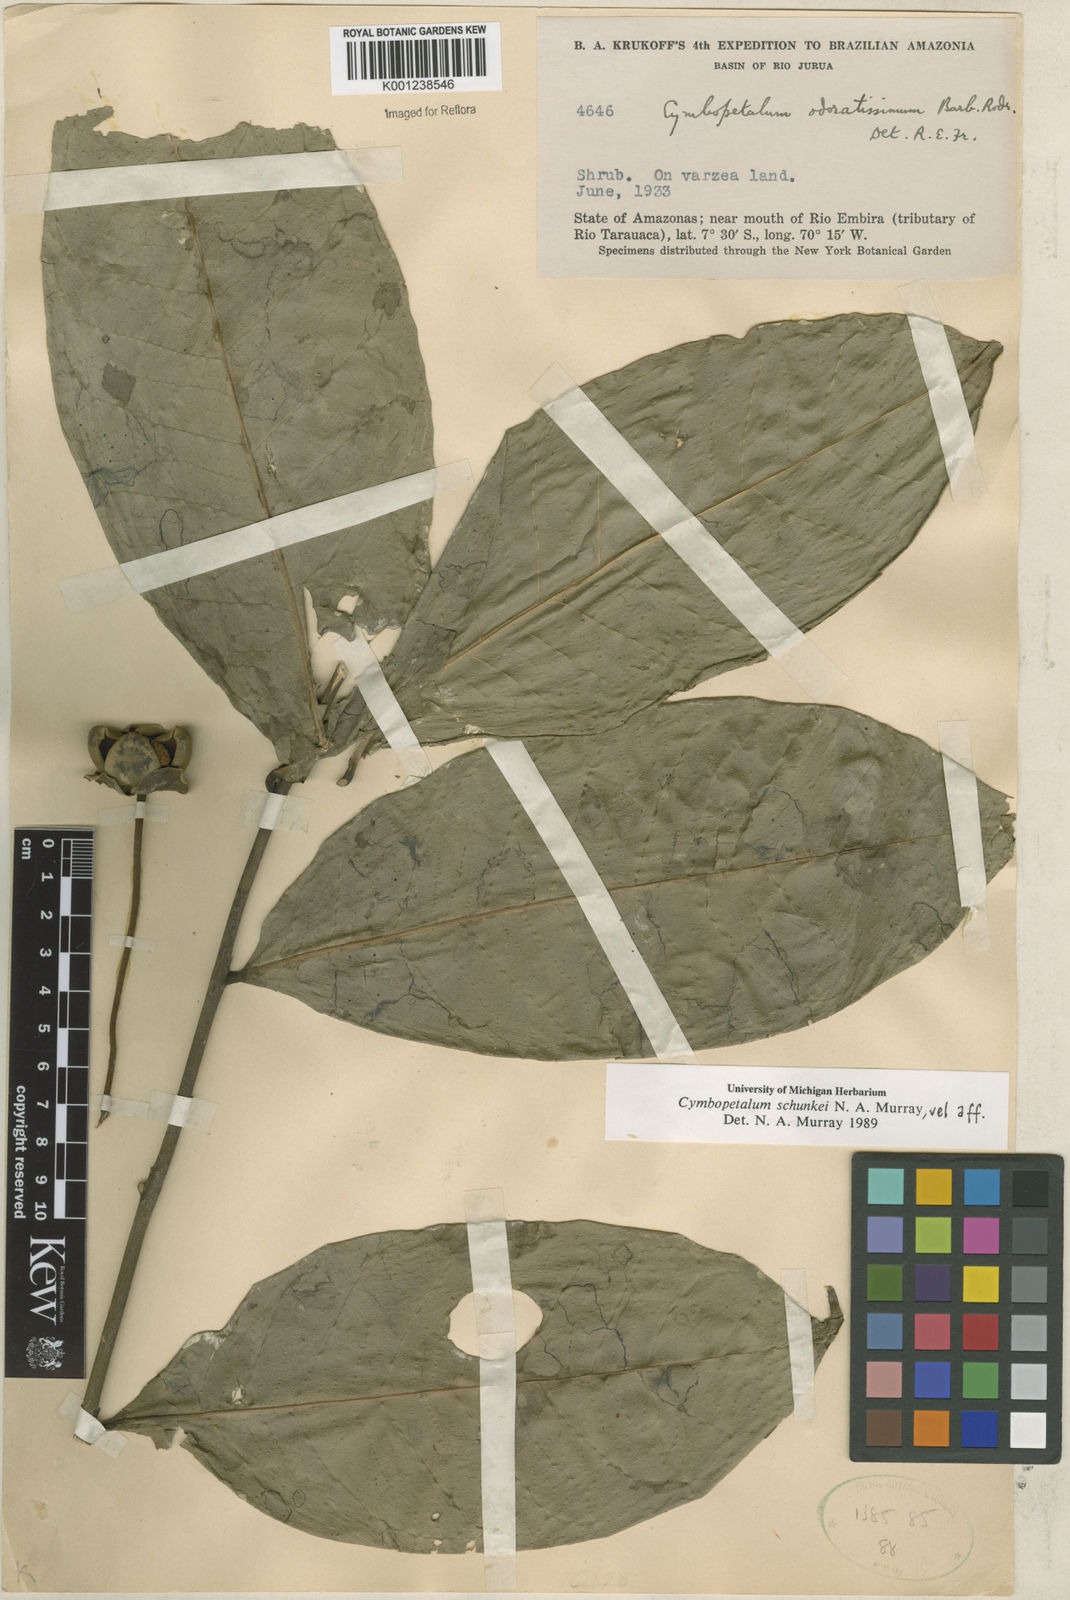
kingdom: Plantae
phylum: Tracheophyta
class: Magnoliopsida
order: Magnoliales
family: Annonaceae
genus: Cymbopetalum
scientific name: Cymbopetalum schunkei
